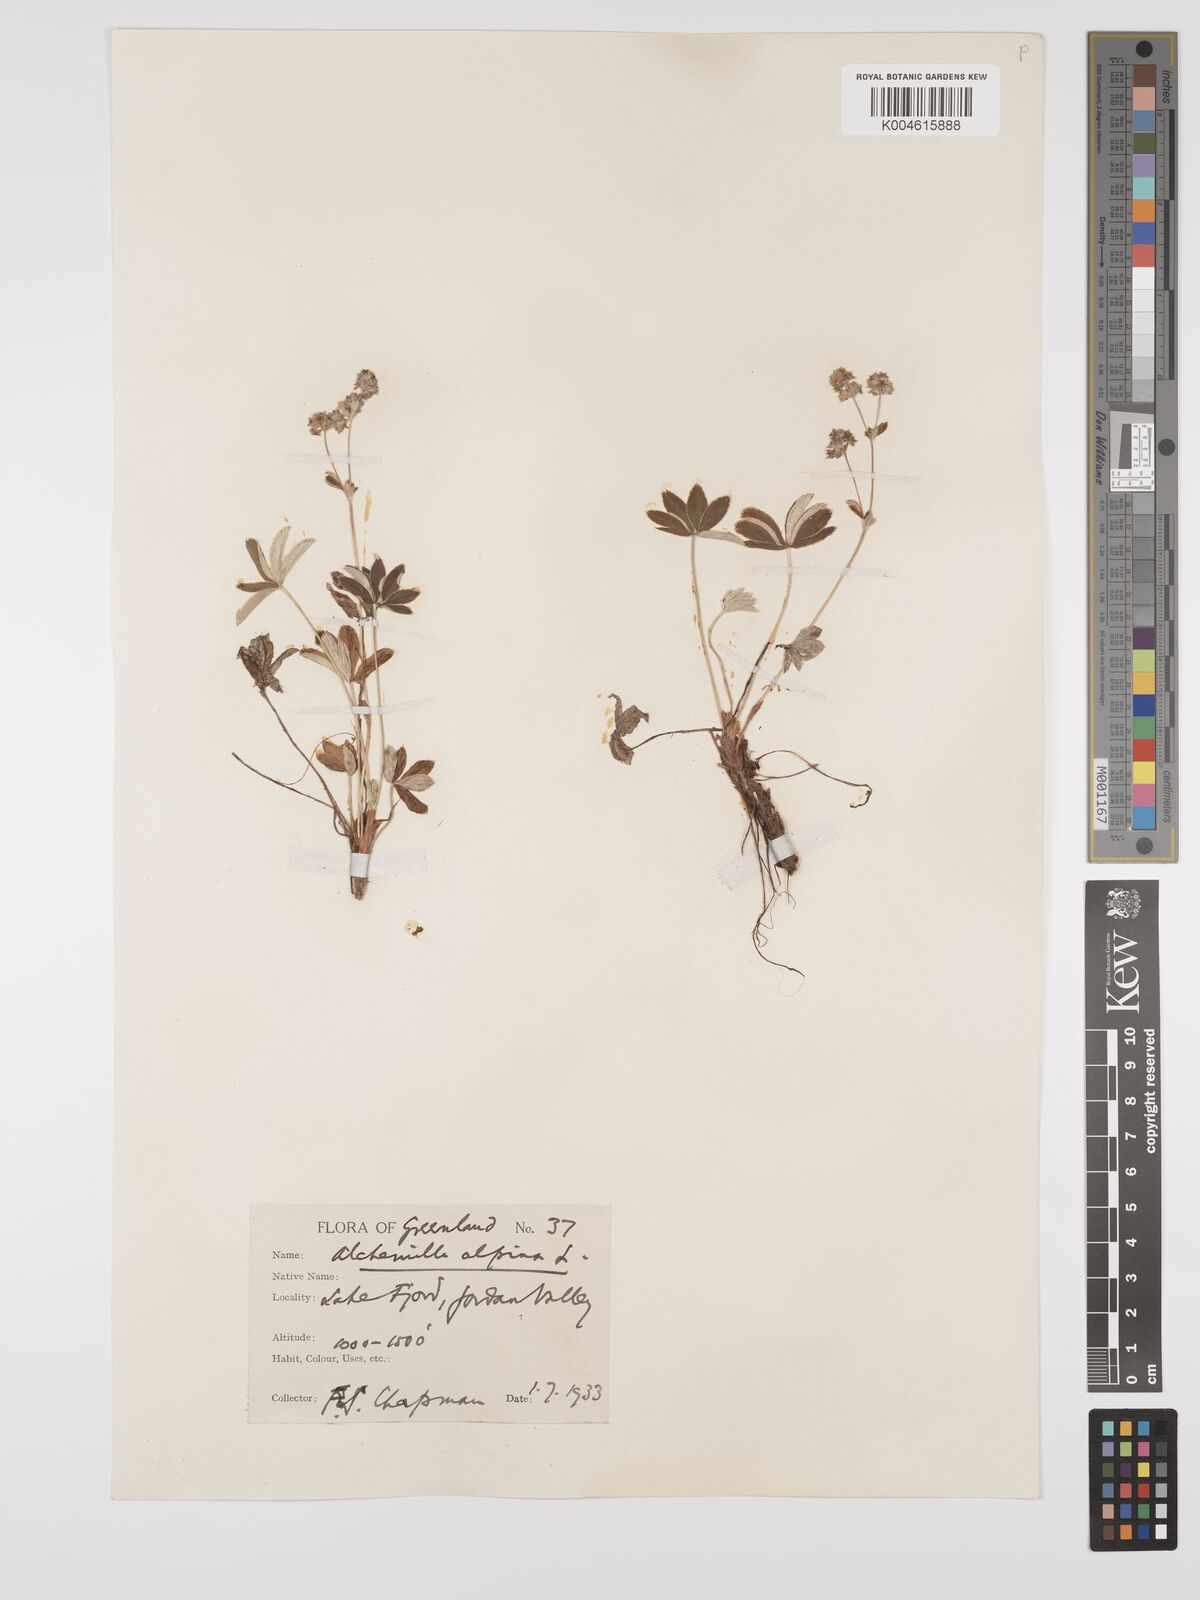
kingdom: Plantae
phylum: Tracheophyta
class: Magnoliopsida
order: Rosales
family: Rosaceae
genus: Alchemilla
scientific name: Alchemilla alpina
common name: Alpine lady's-mantle
